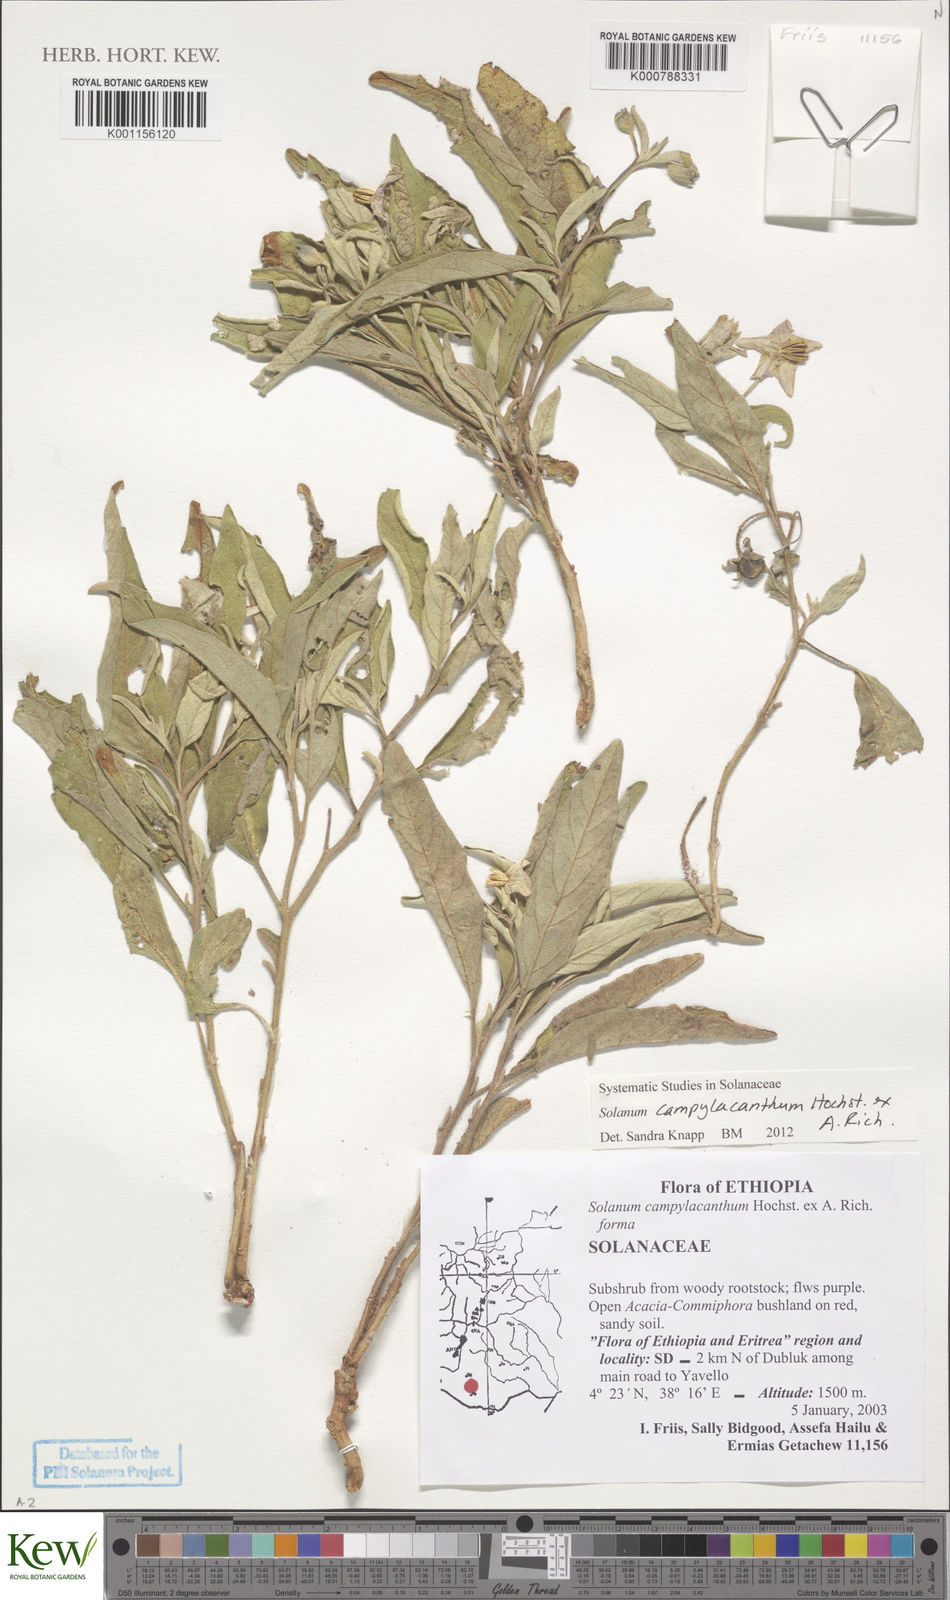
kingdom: Plantae
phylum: Tracheophyta
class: Magnoliopsida
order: Solanales
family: Solanaceae
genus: Solanum
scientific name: Solanum campylacanthum
